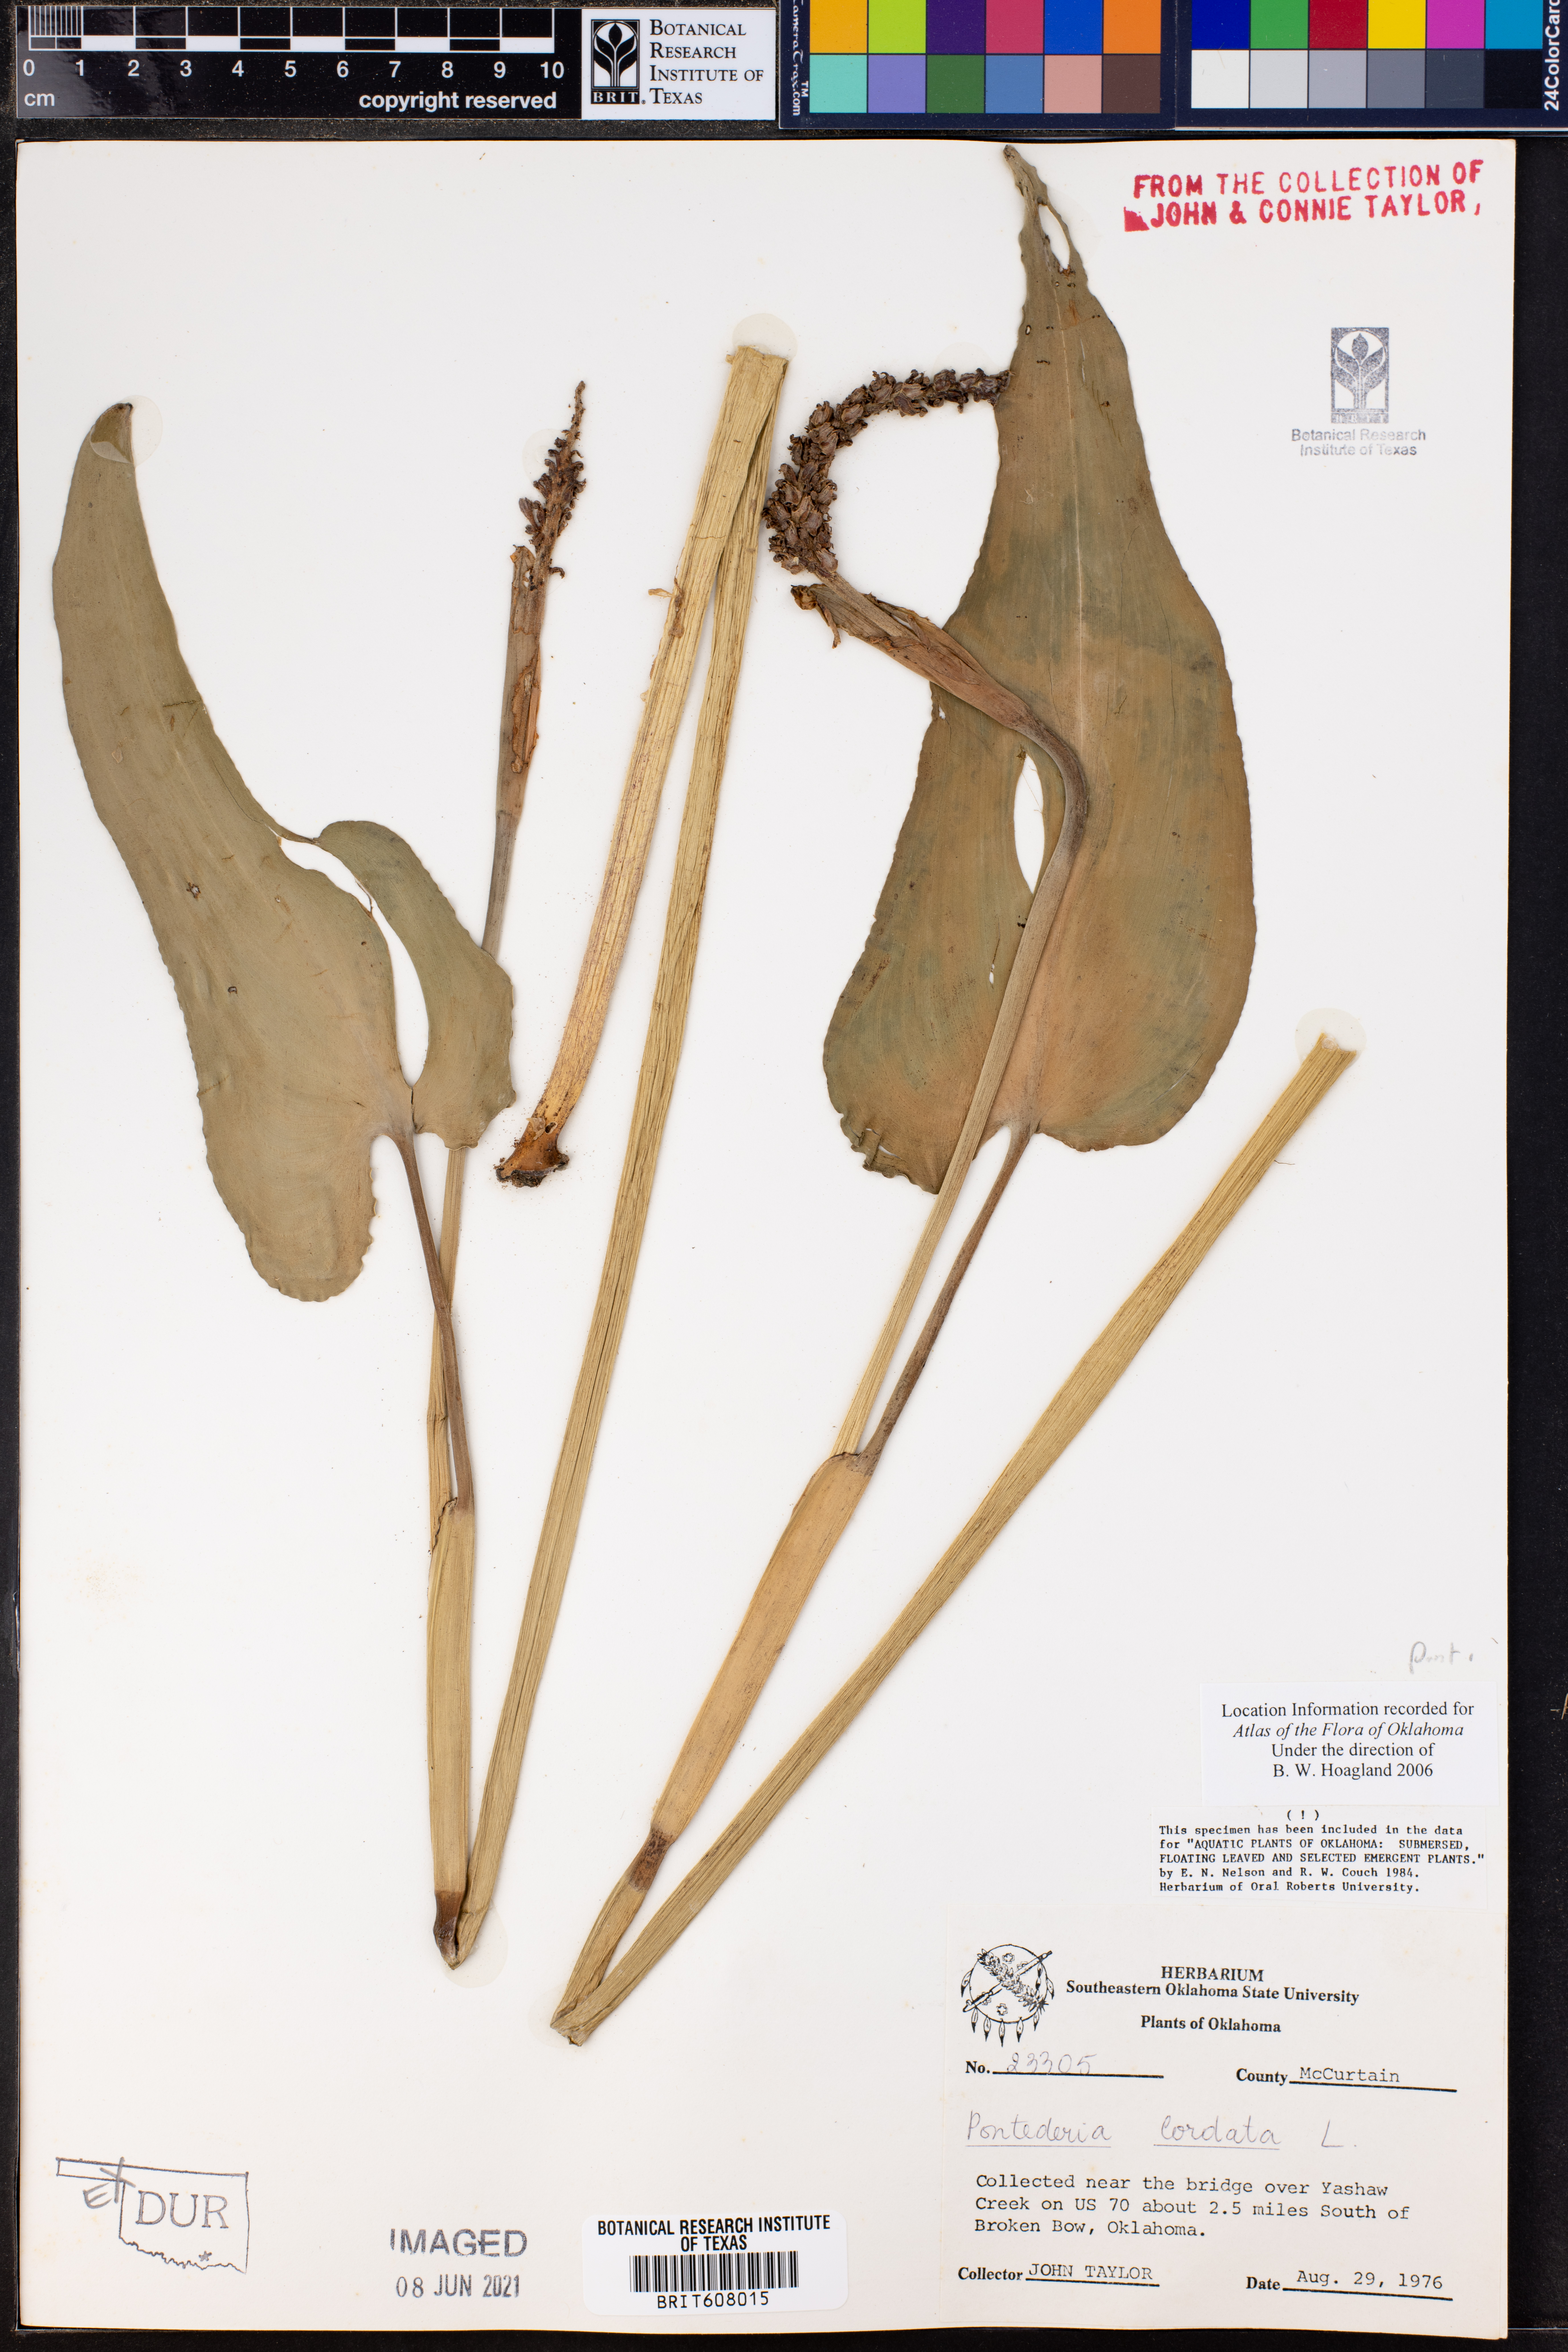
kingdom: Plantae
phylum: Tracheophyta
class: Liliopsida
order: Commelinales
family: Pontederiaceae
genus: Pontederia
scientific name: Pontederia cordata
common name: Pickerelweed
